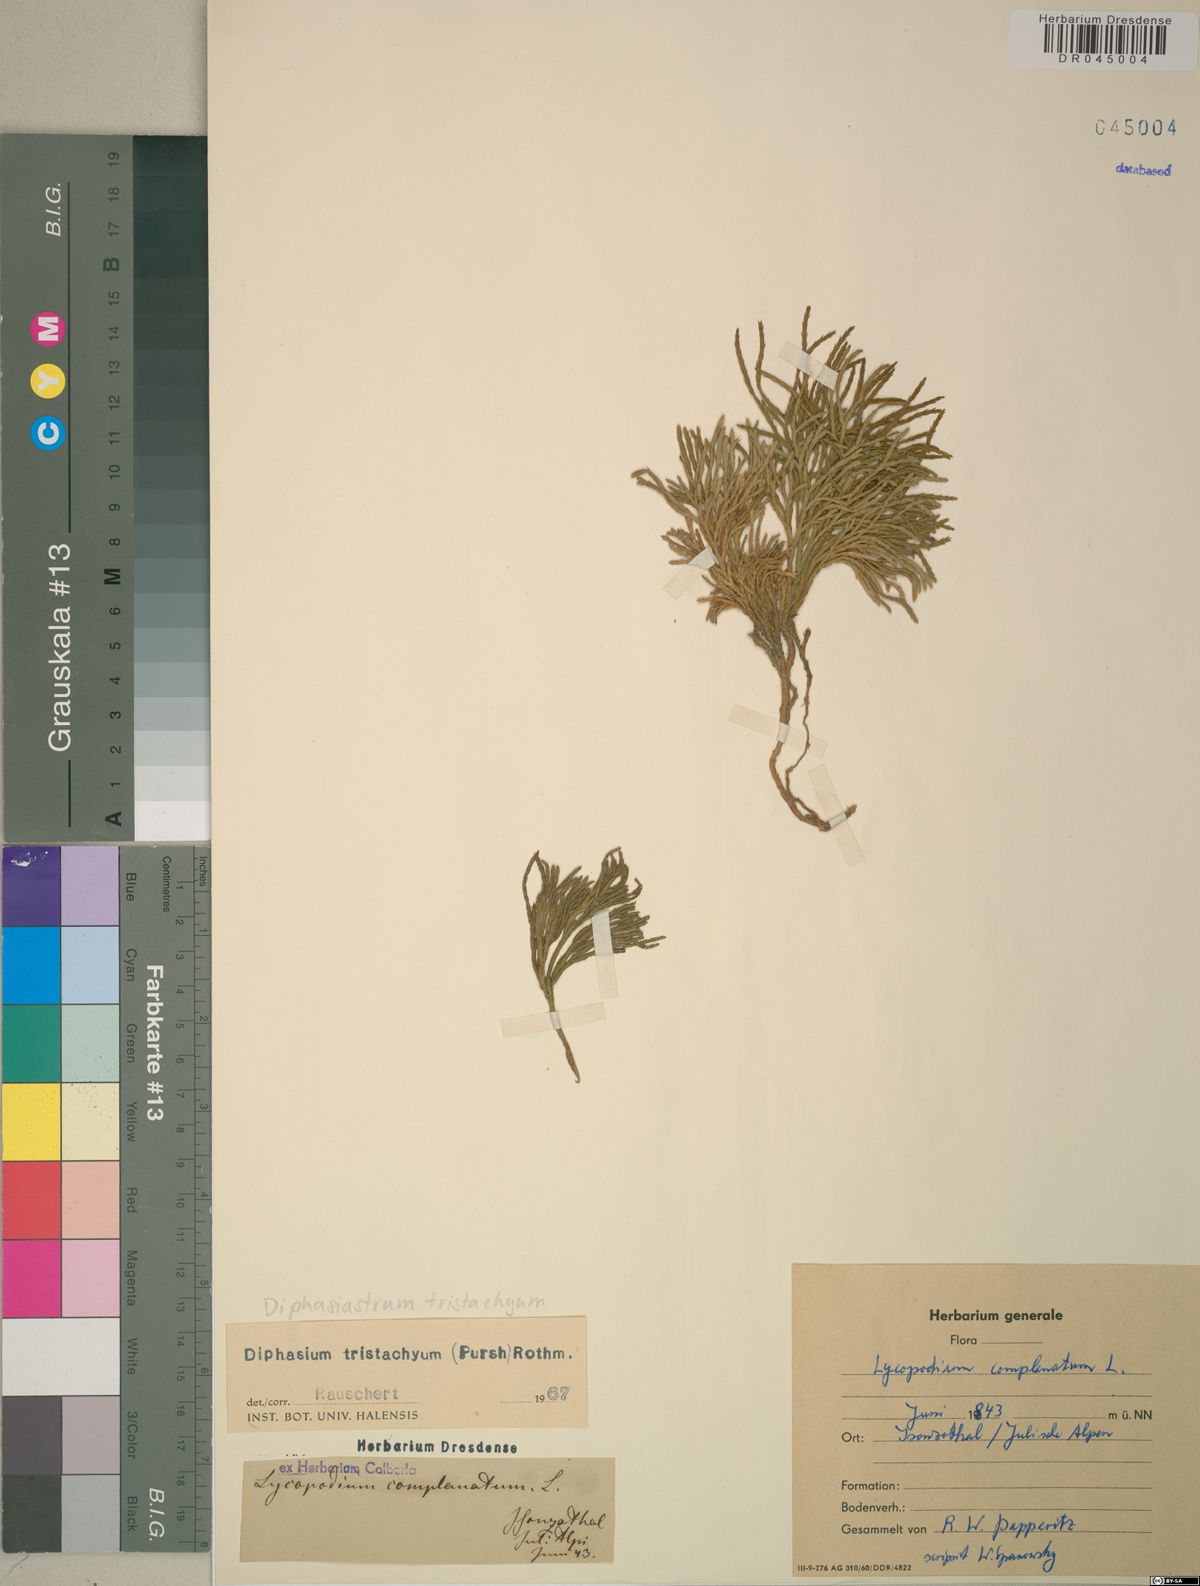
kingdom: Plantae
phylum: Tracheophyta
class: Lycopodiopsida
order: Lycopodiales
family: Lycopodiaceae
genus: Diphasiastrum
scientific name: Diphasiastrum tristachyum
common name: Blue ground-cedar
